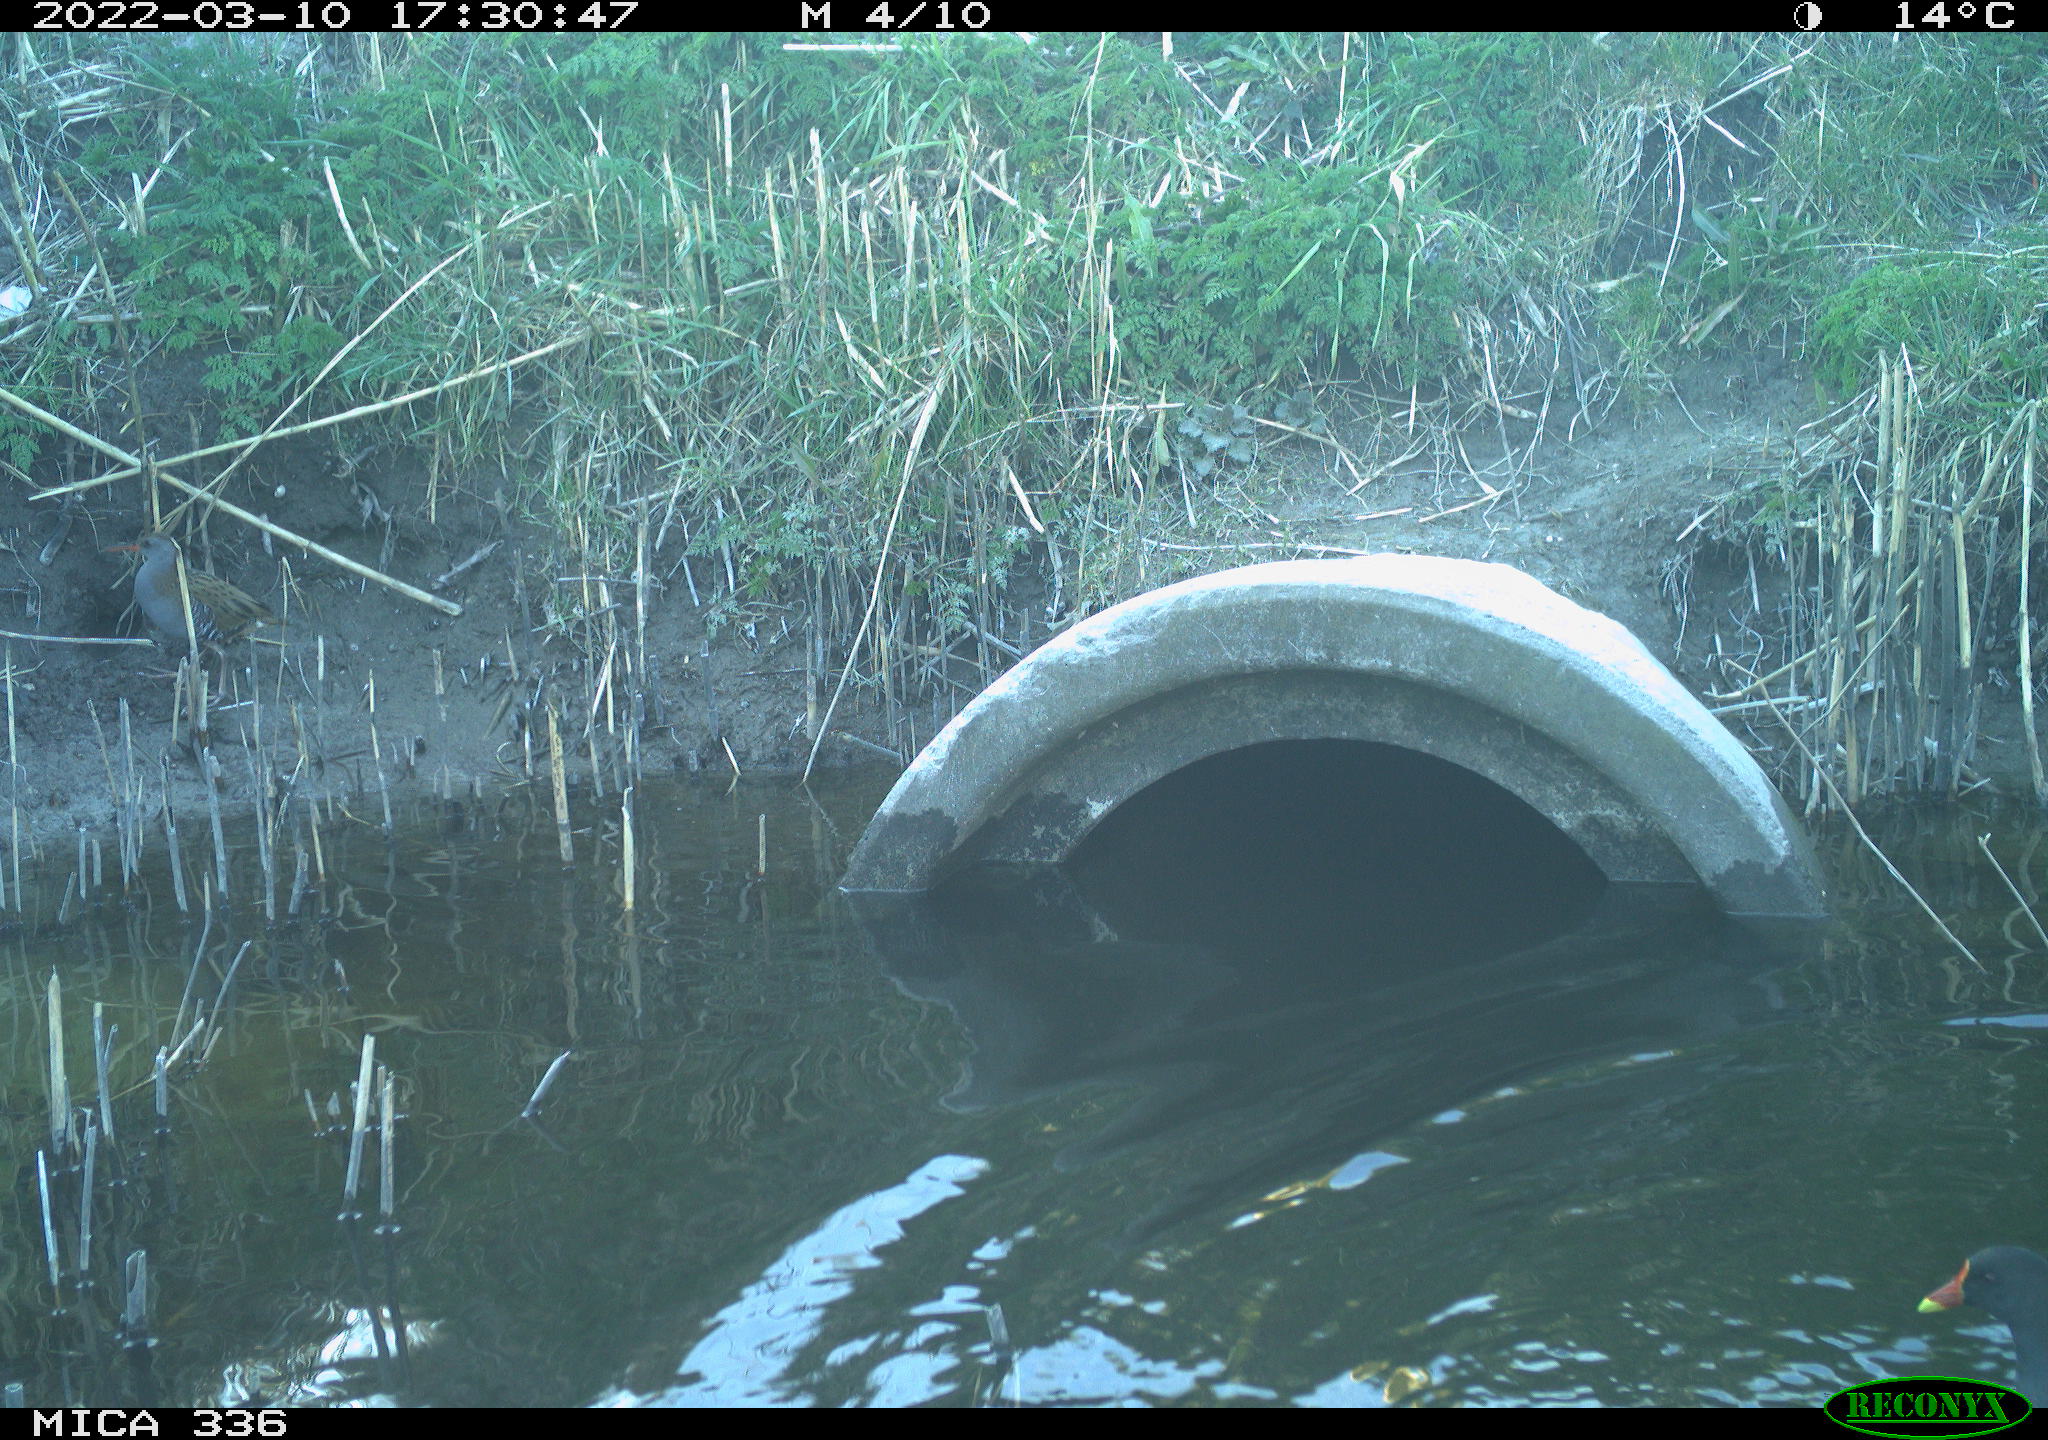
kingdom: Animalia
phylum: Chordata
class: Aves
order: Gruiformes
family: Rallidae
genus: Rallus
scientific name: Rallus aquaticus
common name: Water rail
